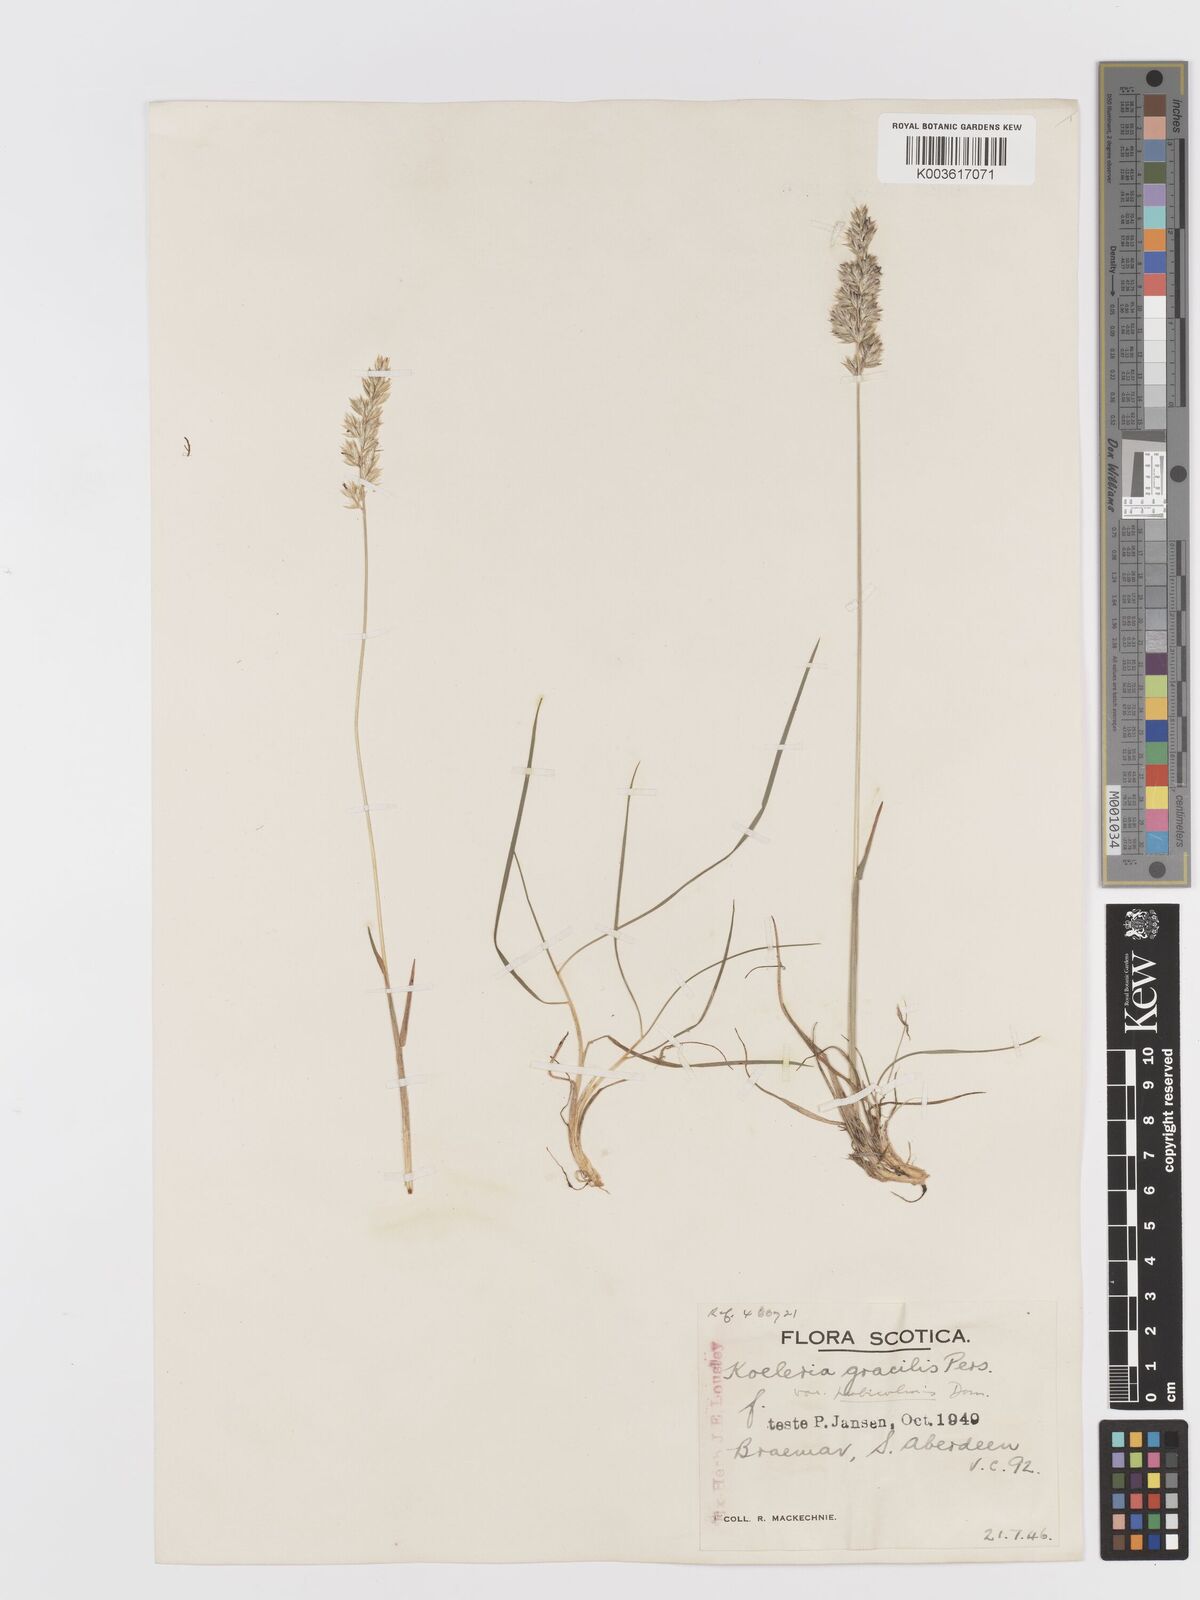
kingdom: Plantae
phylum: Tracheophyta
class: Liliopsida
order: Poales
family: Poaceae
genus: Koeleria
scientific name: Koeleria macrantha
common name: Crested hair-grass
